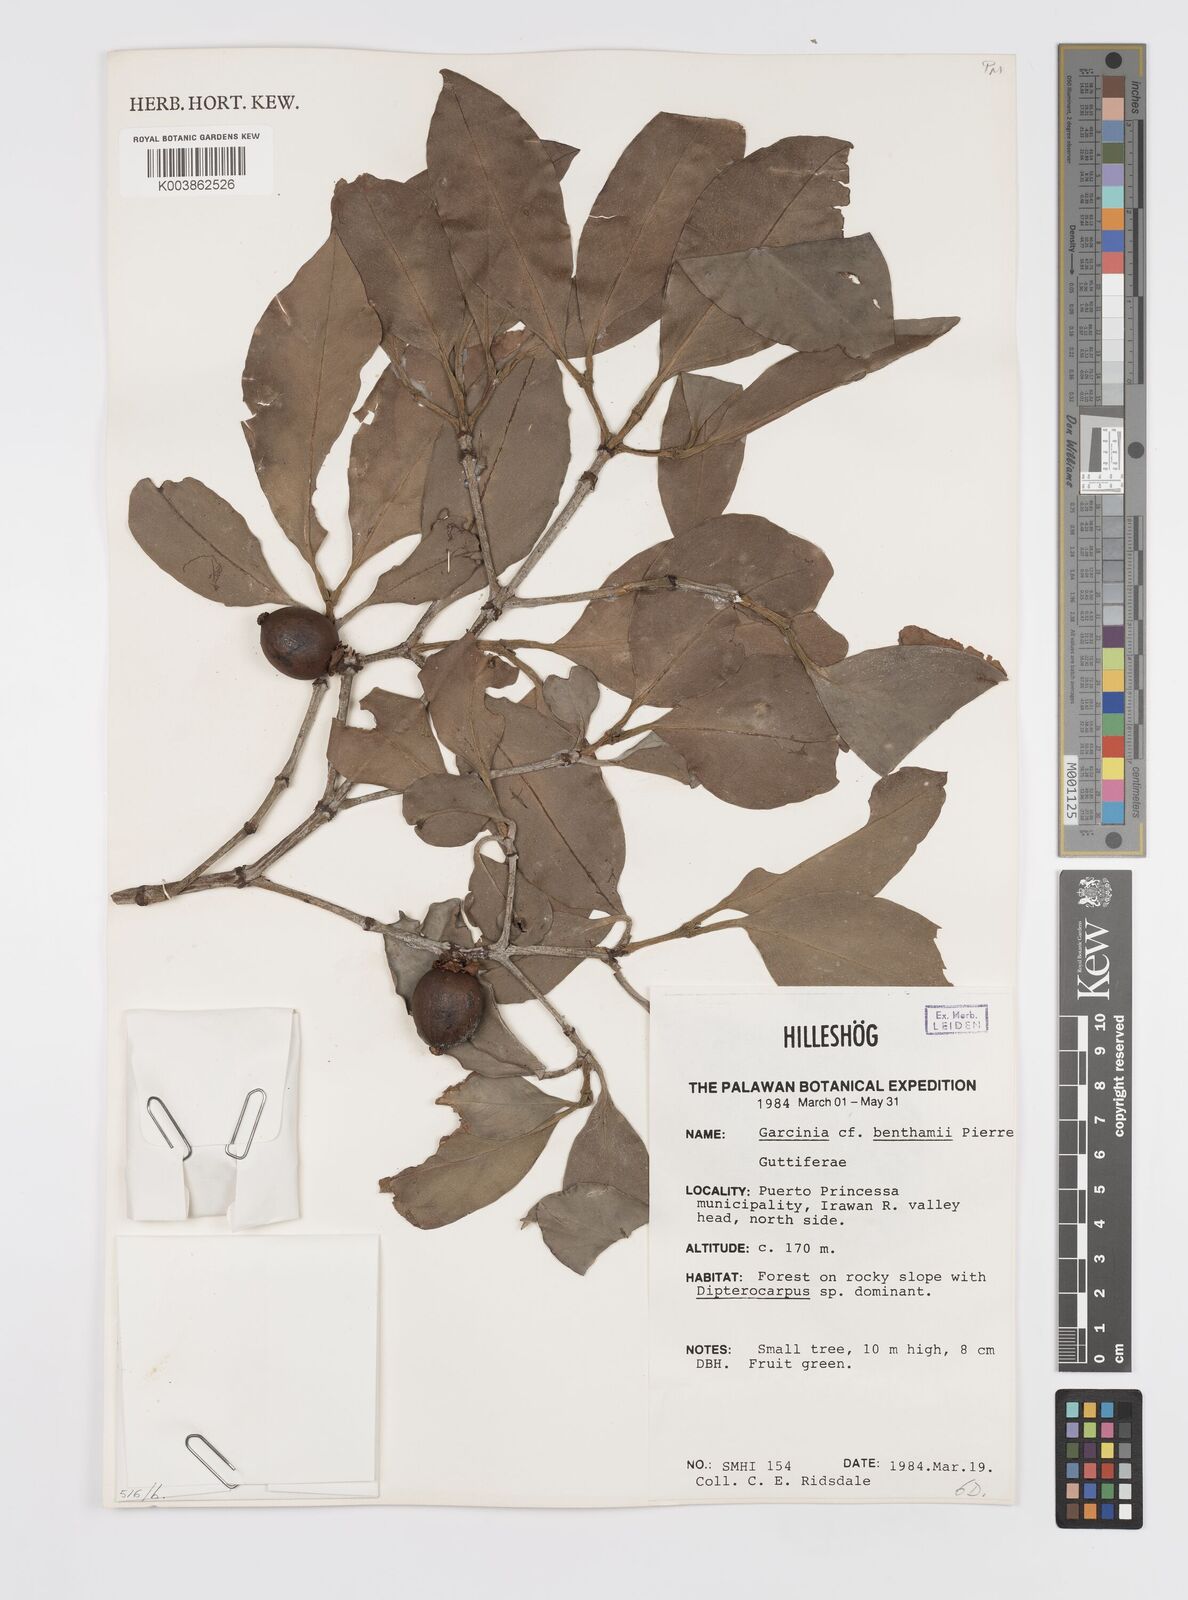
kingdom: Plantae
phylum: Tracheophyta
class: Magnoliopsida
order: Malpighiales
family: Clusiaceae
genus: Garcinia
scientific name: Garcinia celebica
